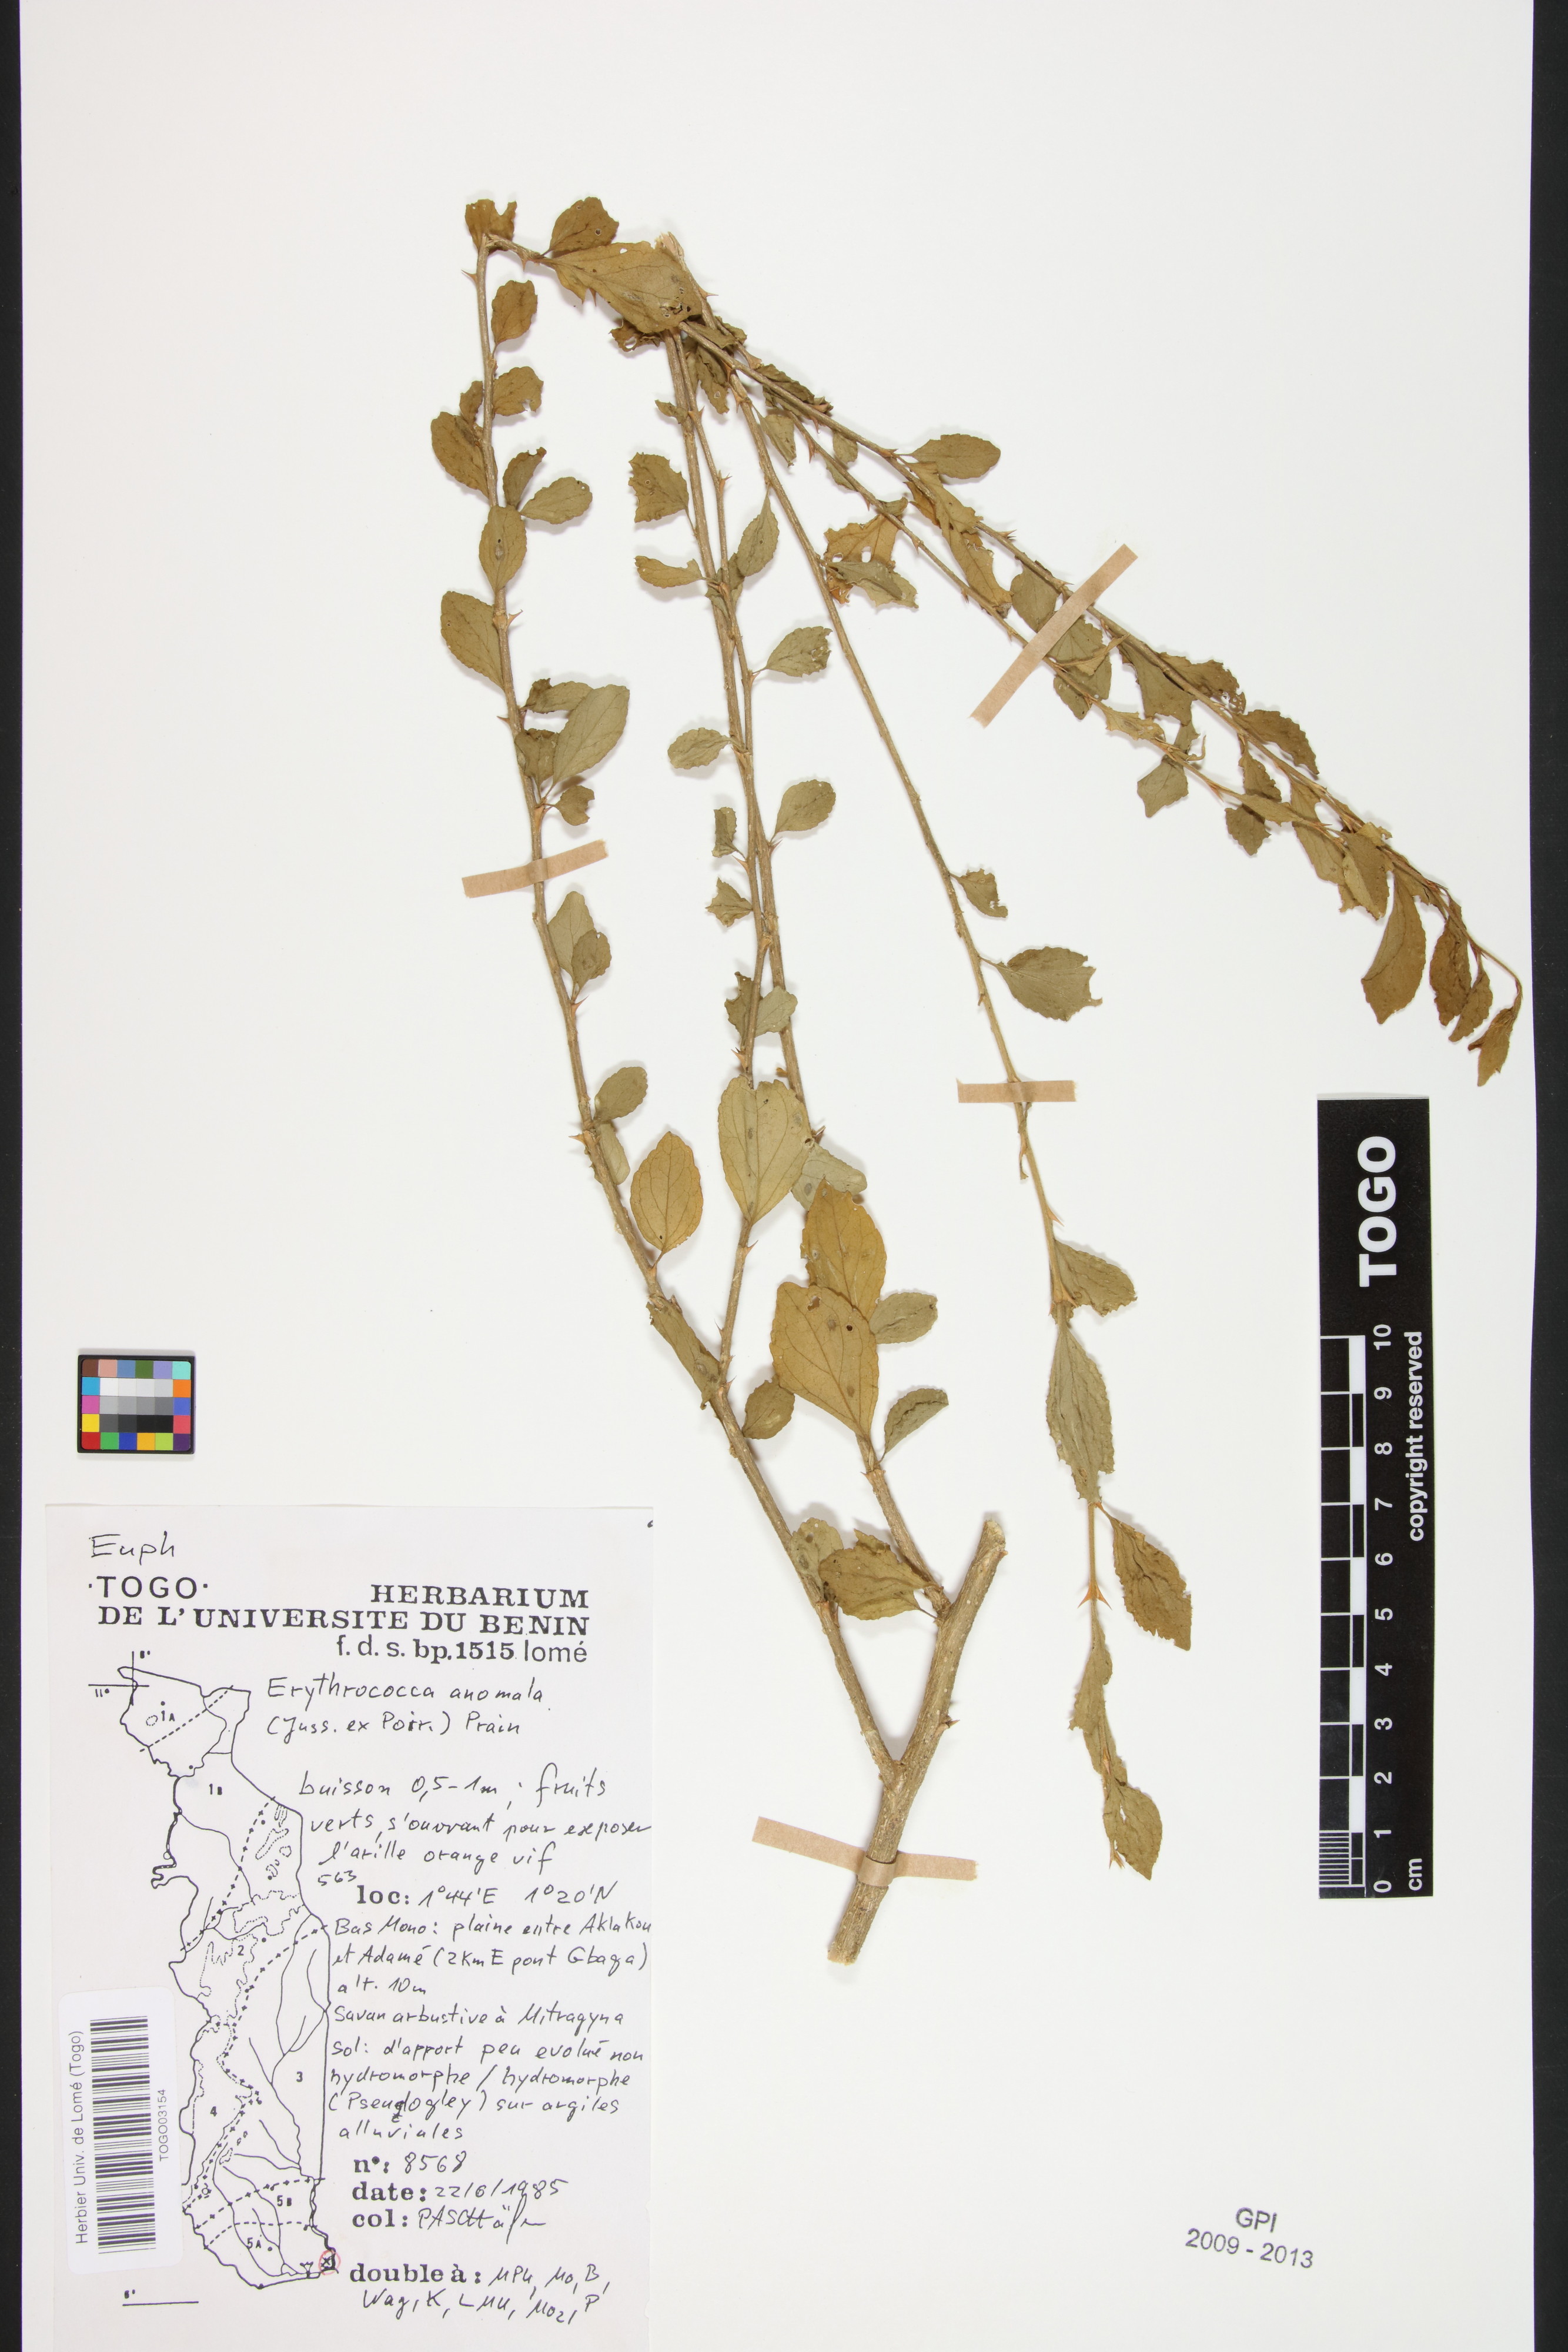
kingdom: Plantae
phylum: Tracheophyta
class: Magnoliopsida
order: Malpighiales
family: Euphorbiaceae
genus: Erythrococca
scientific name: Erythrococca anomala
